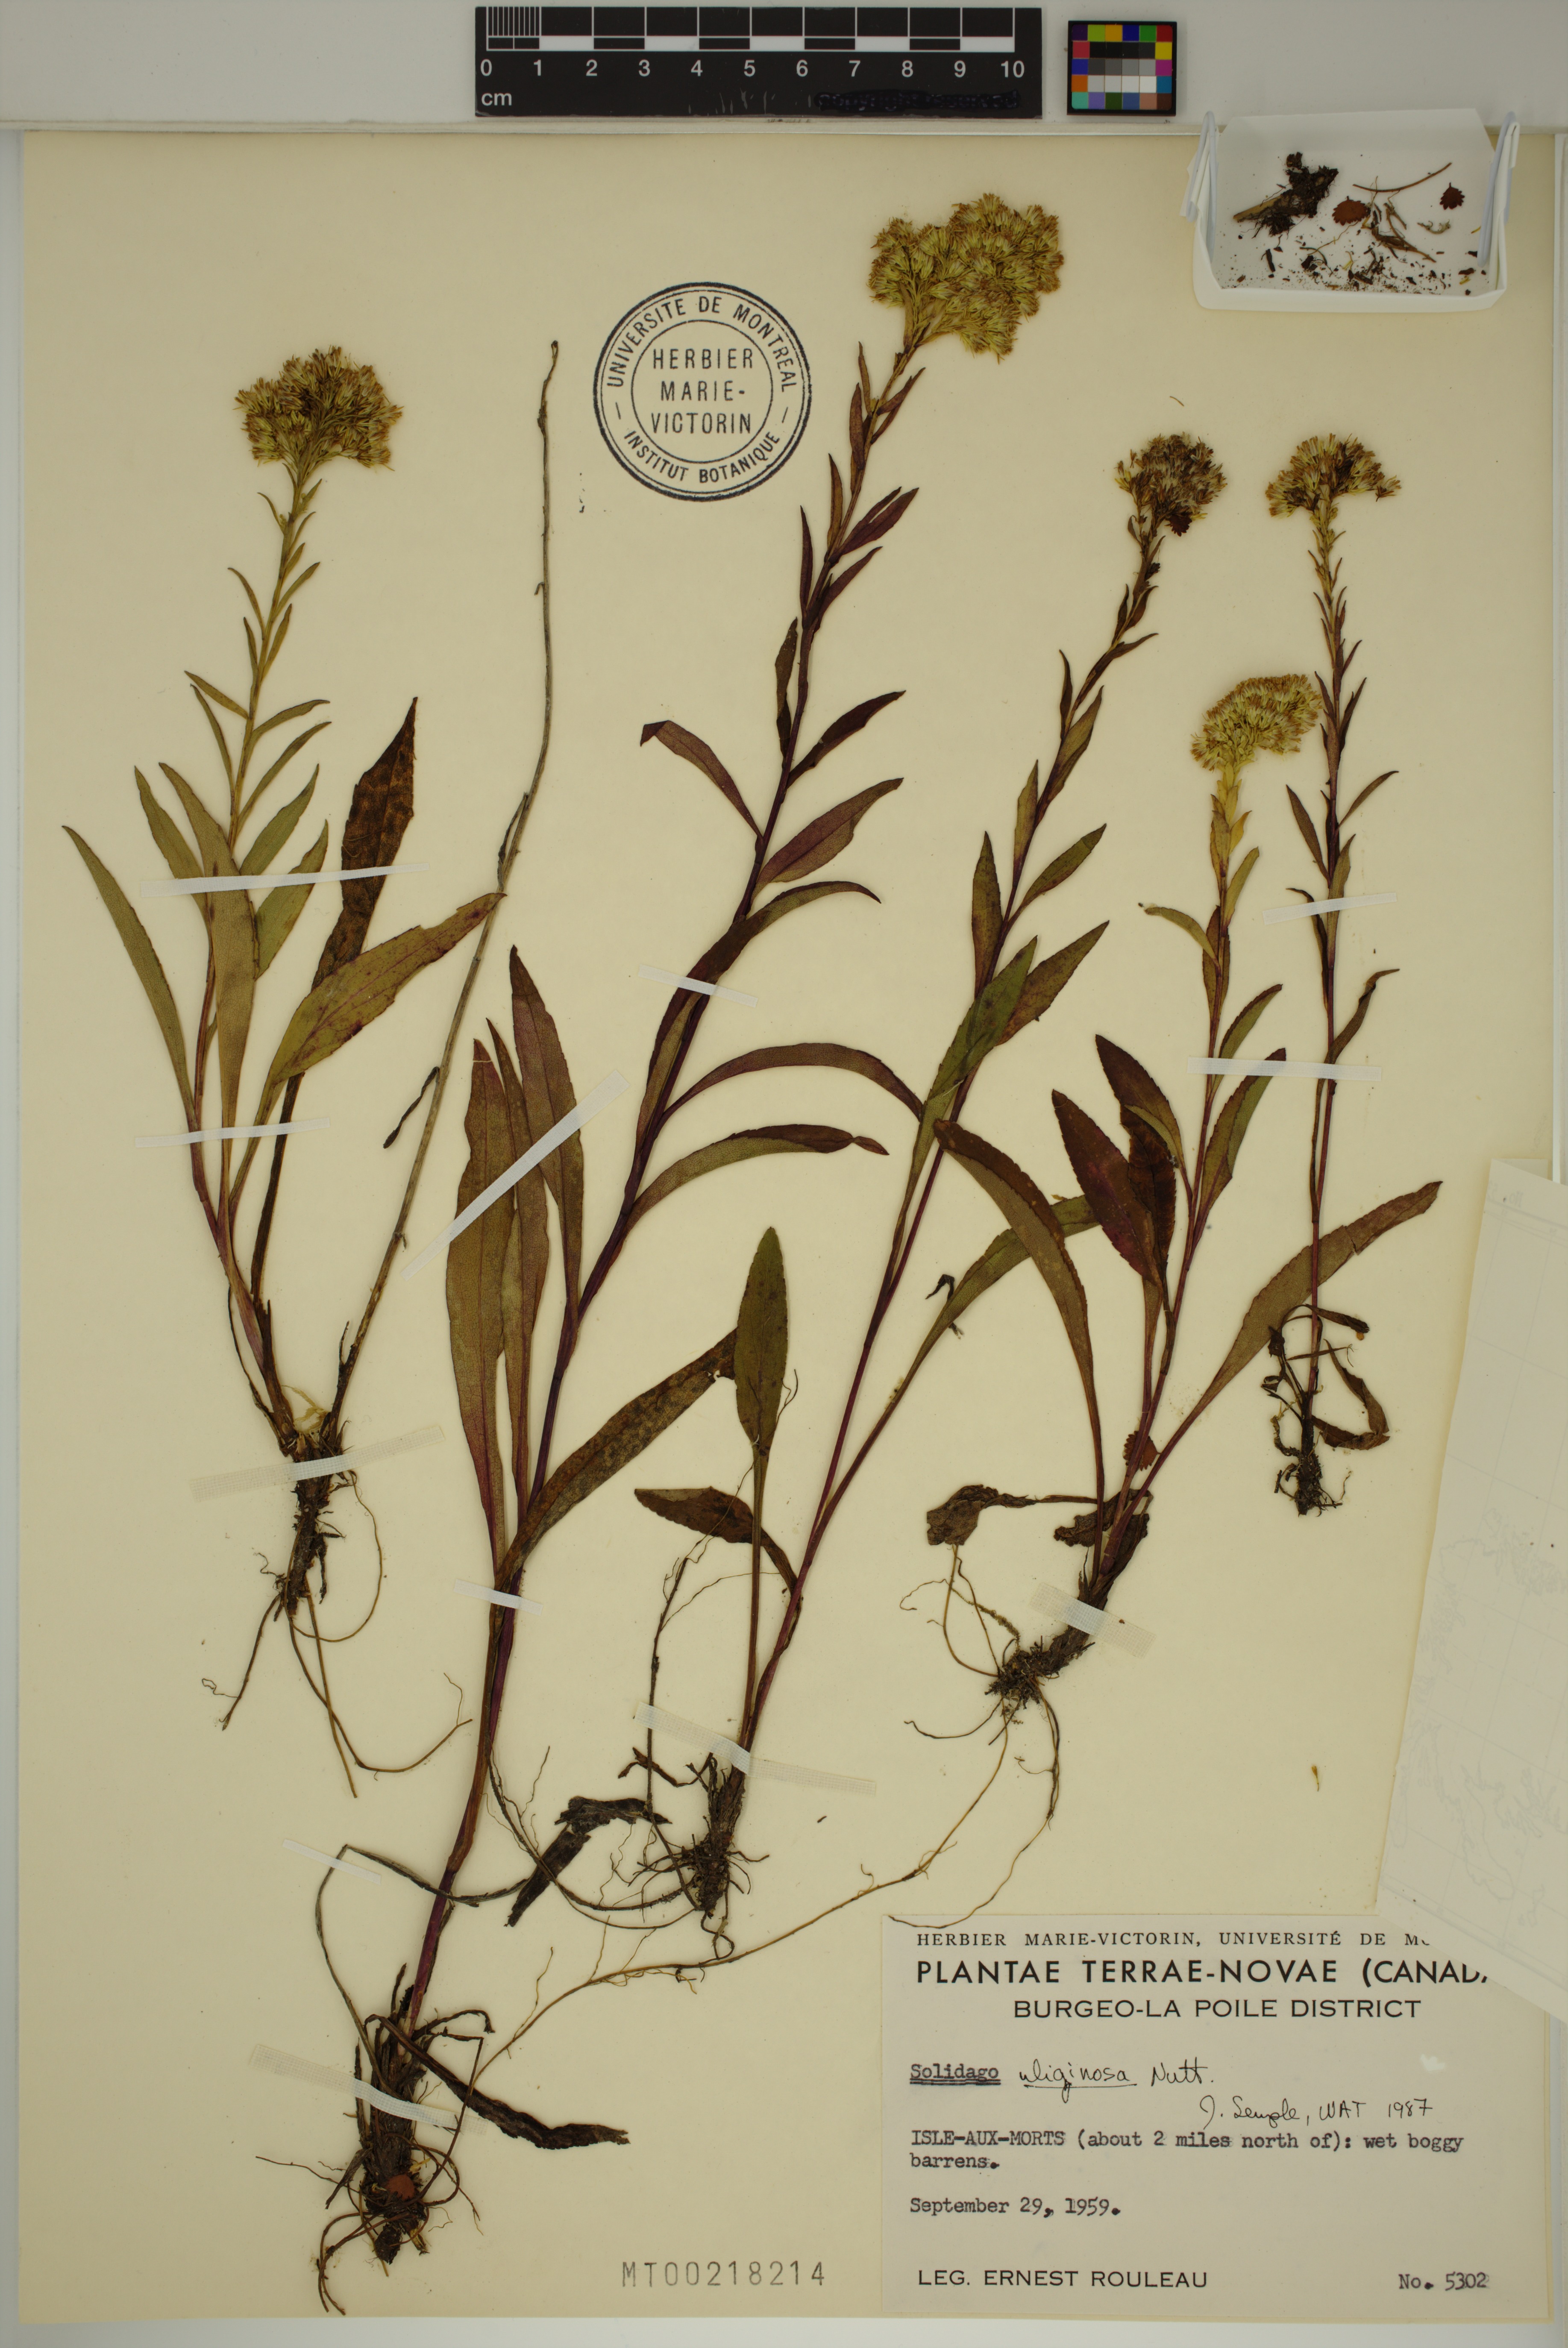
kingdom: Plantae
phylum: Tracheophyta
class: Magnoliopsida
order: Asterales
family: Asteraceae
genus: Solidago
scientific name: Solidago uliginosa
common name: Bog goldenrod
